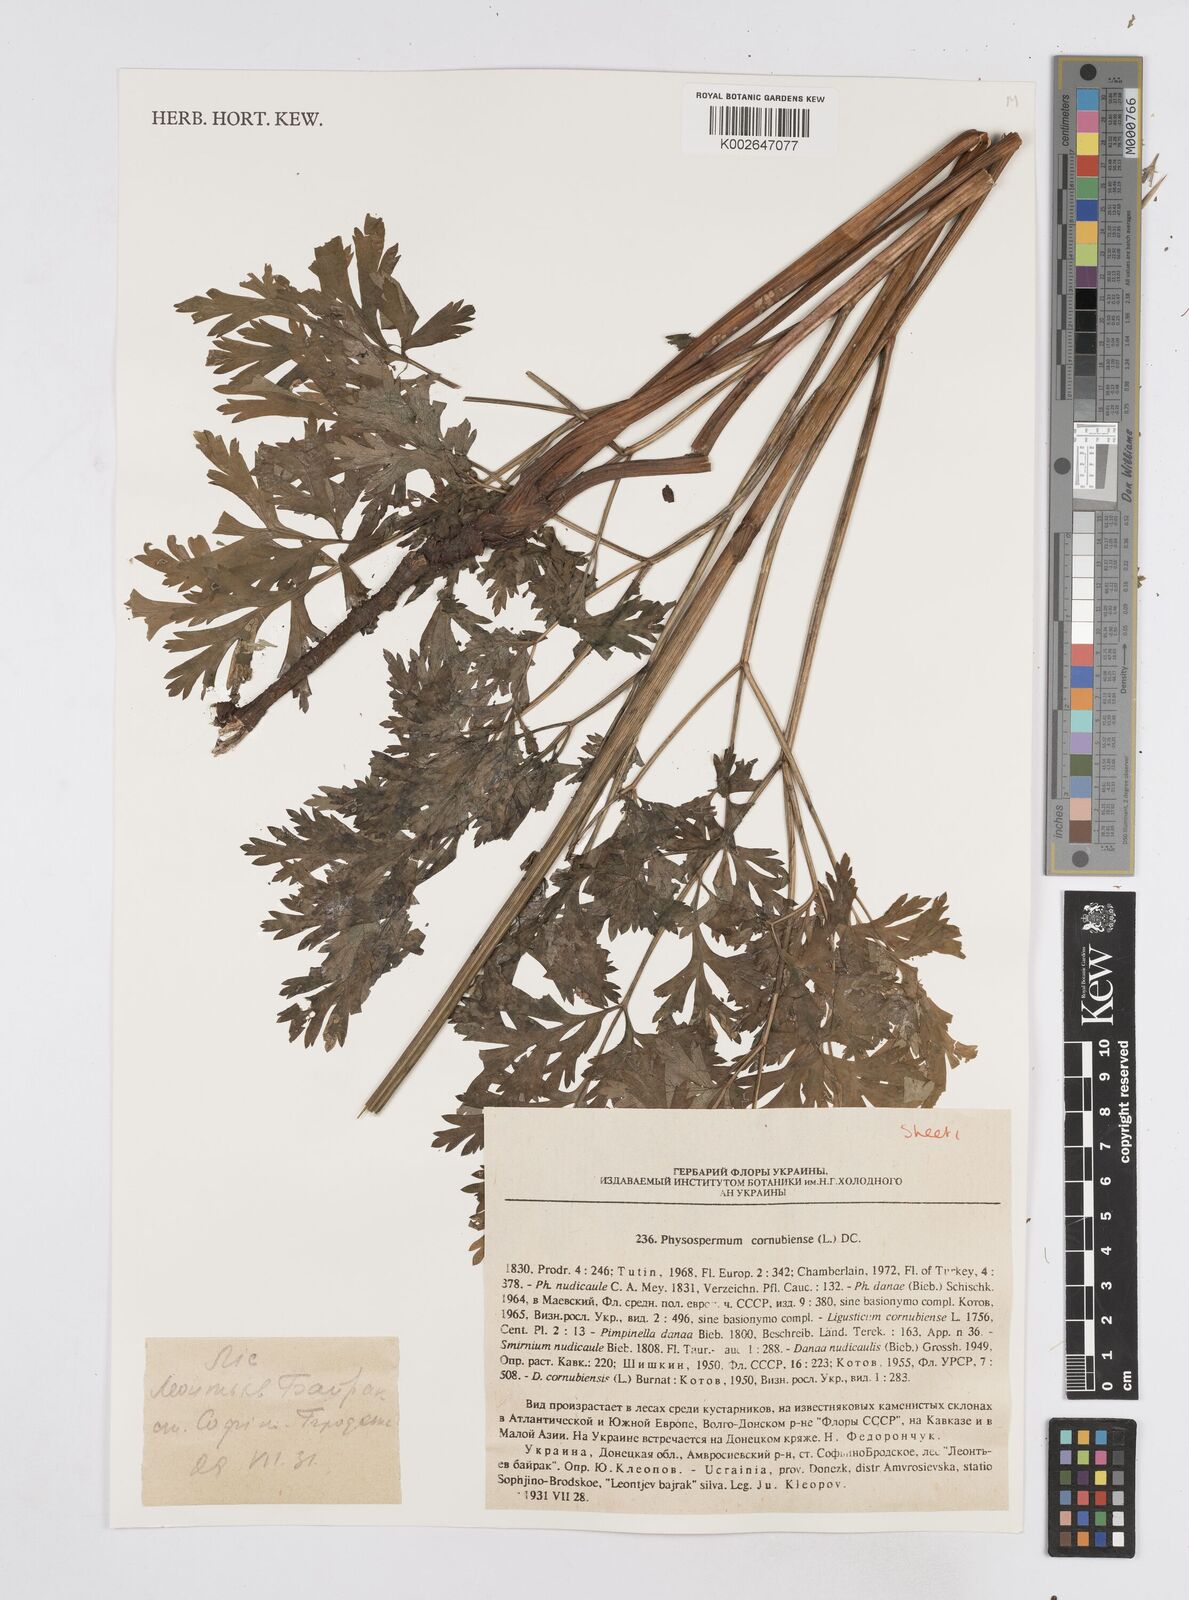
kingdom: Plantae
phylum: Tracheophyta
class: Magnoliopsida
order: Apiales
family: Apiaceae
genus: Physospermum
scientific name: Physospermum cornubiense
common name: Bladderseed
